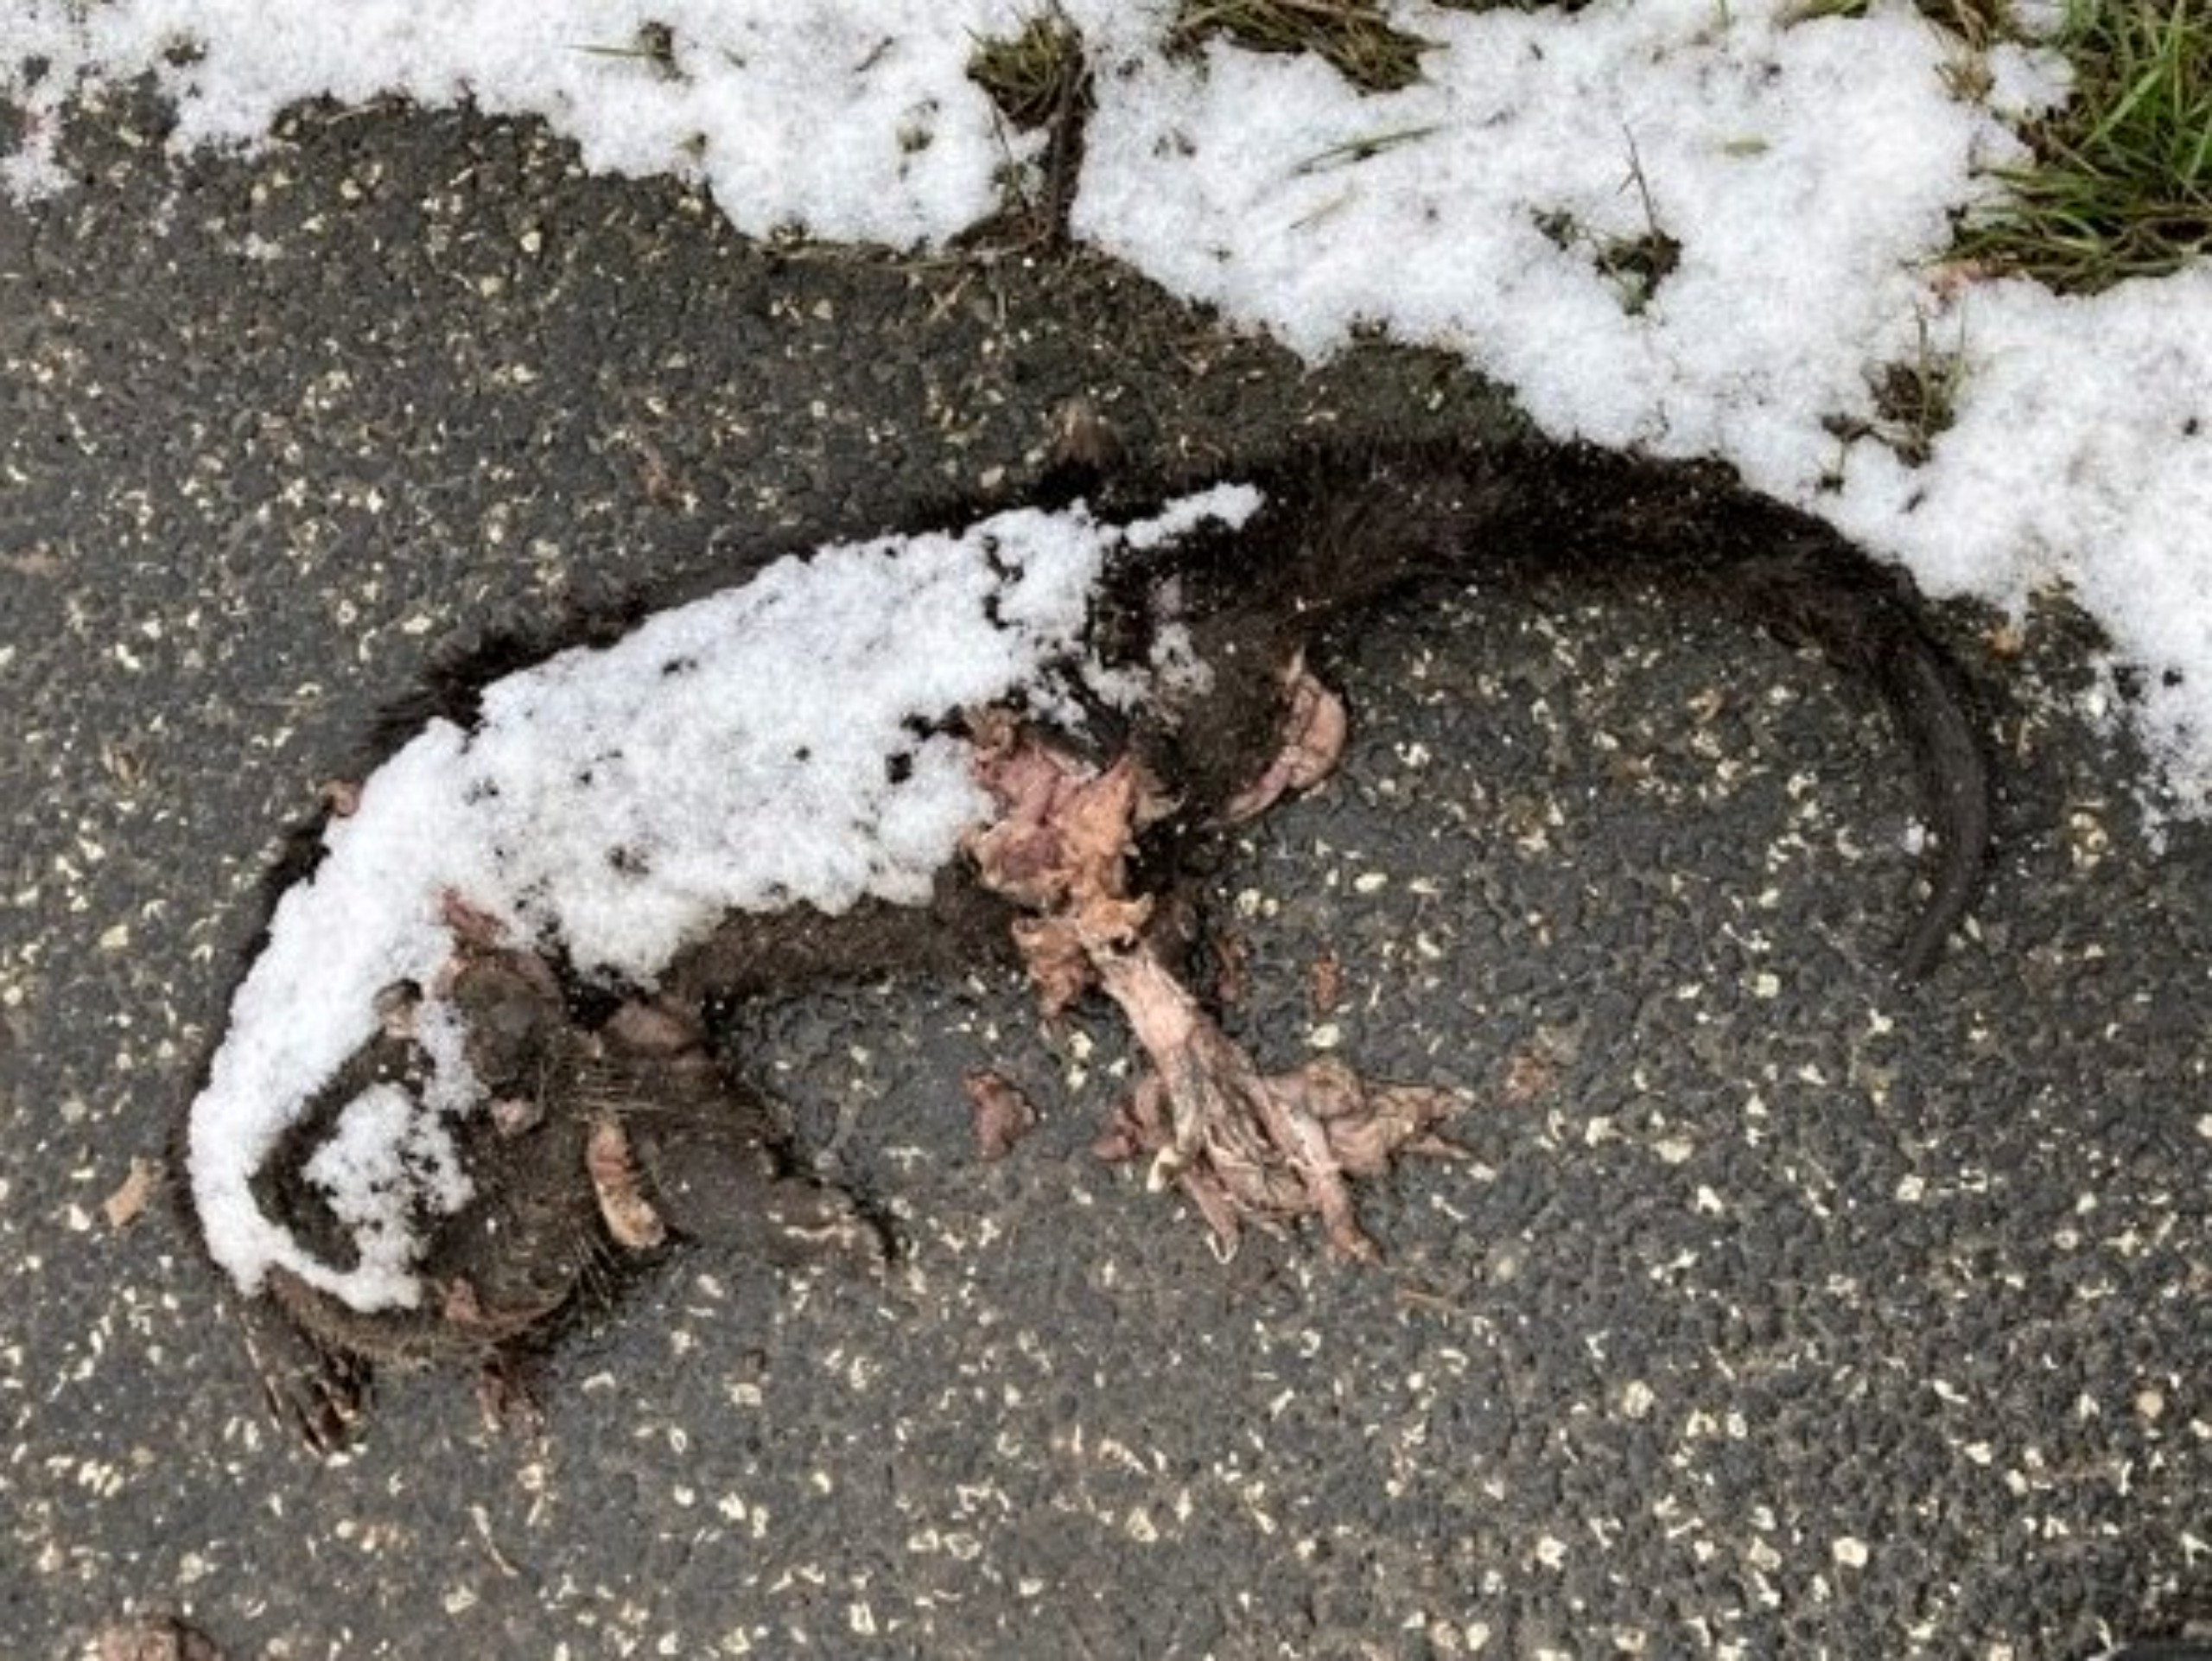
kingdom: Animalia
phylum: Chordata
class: Mammalia
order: Carnivora
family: Mustelidae
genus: Lutra
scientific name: Lutra lutra
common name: Odder
